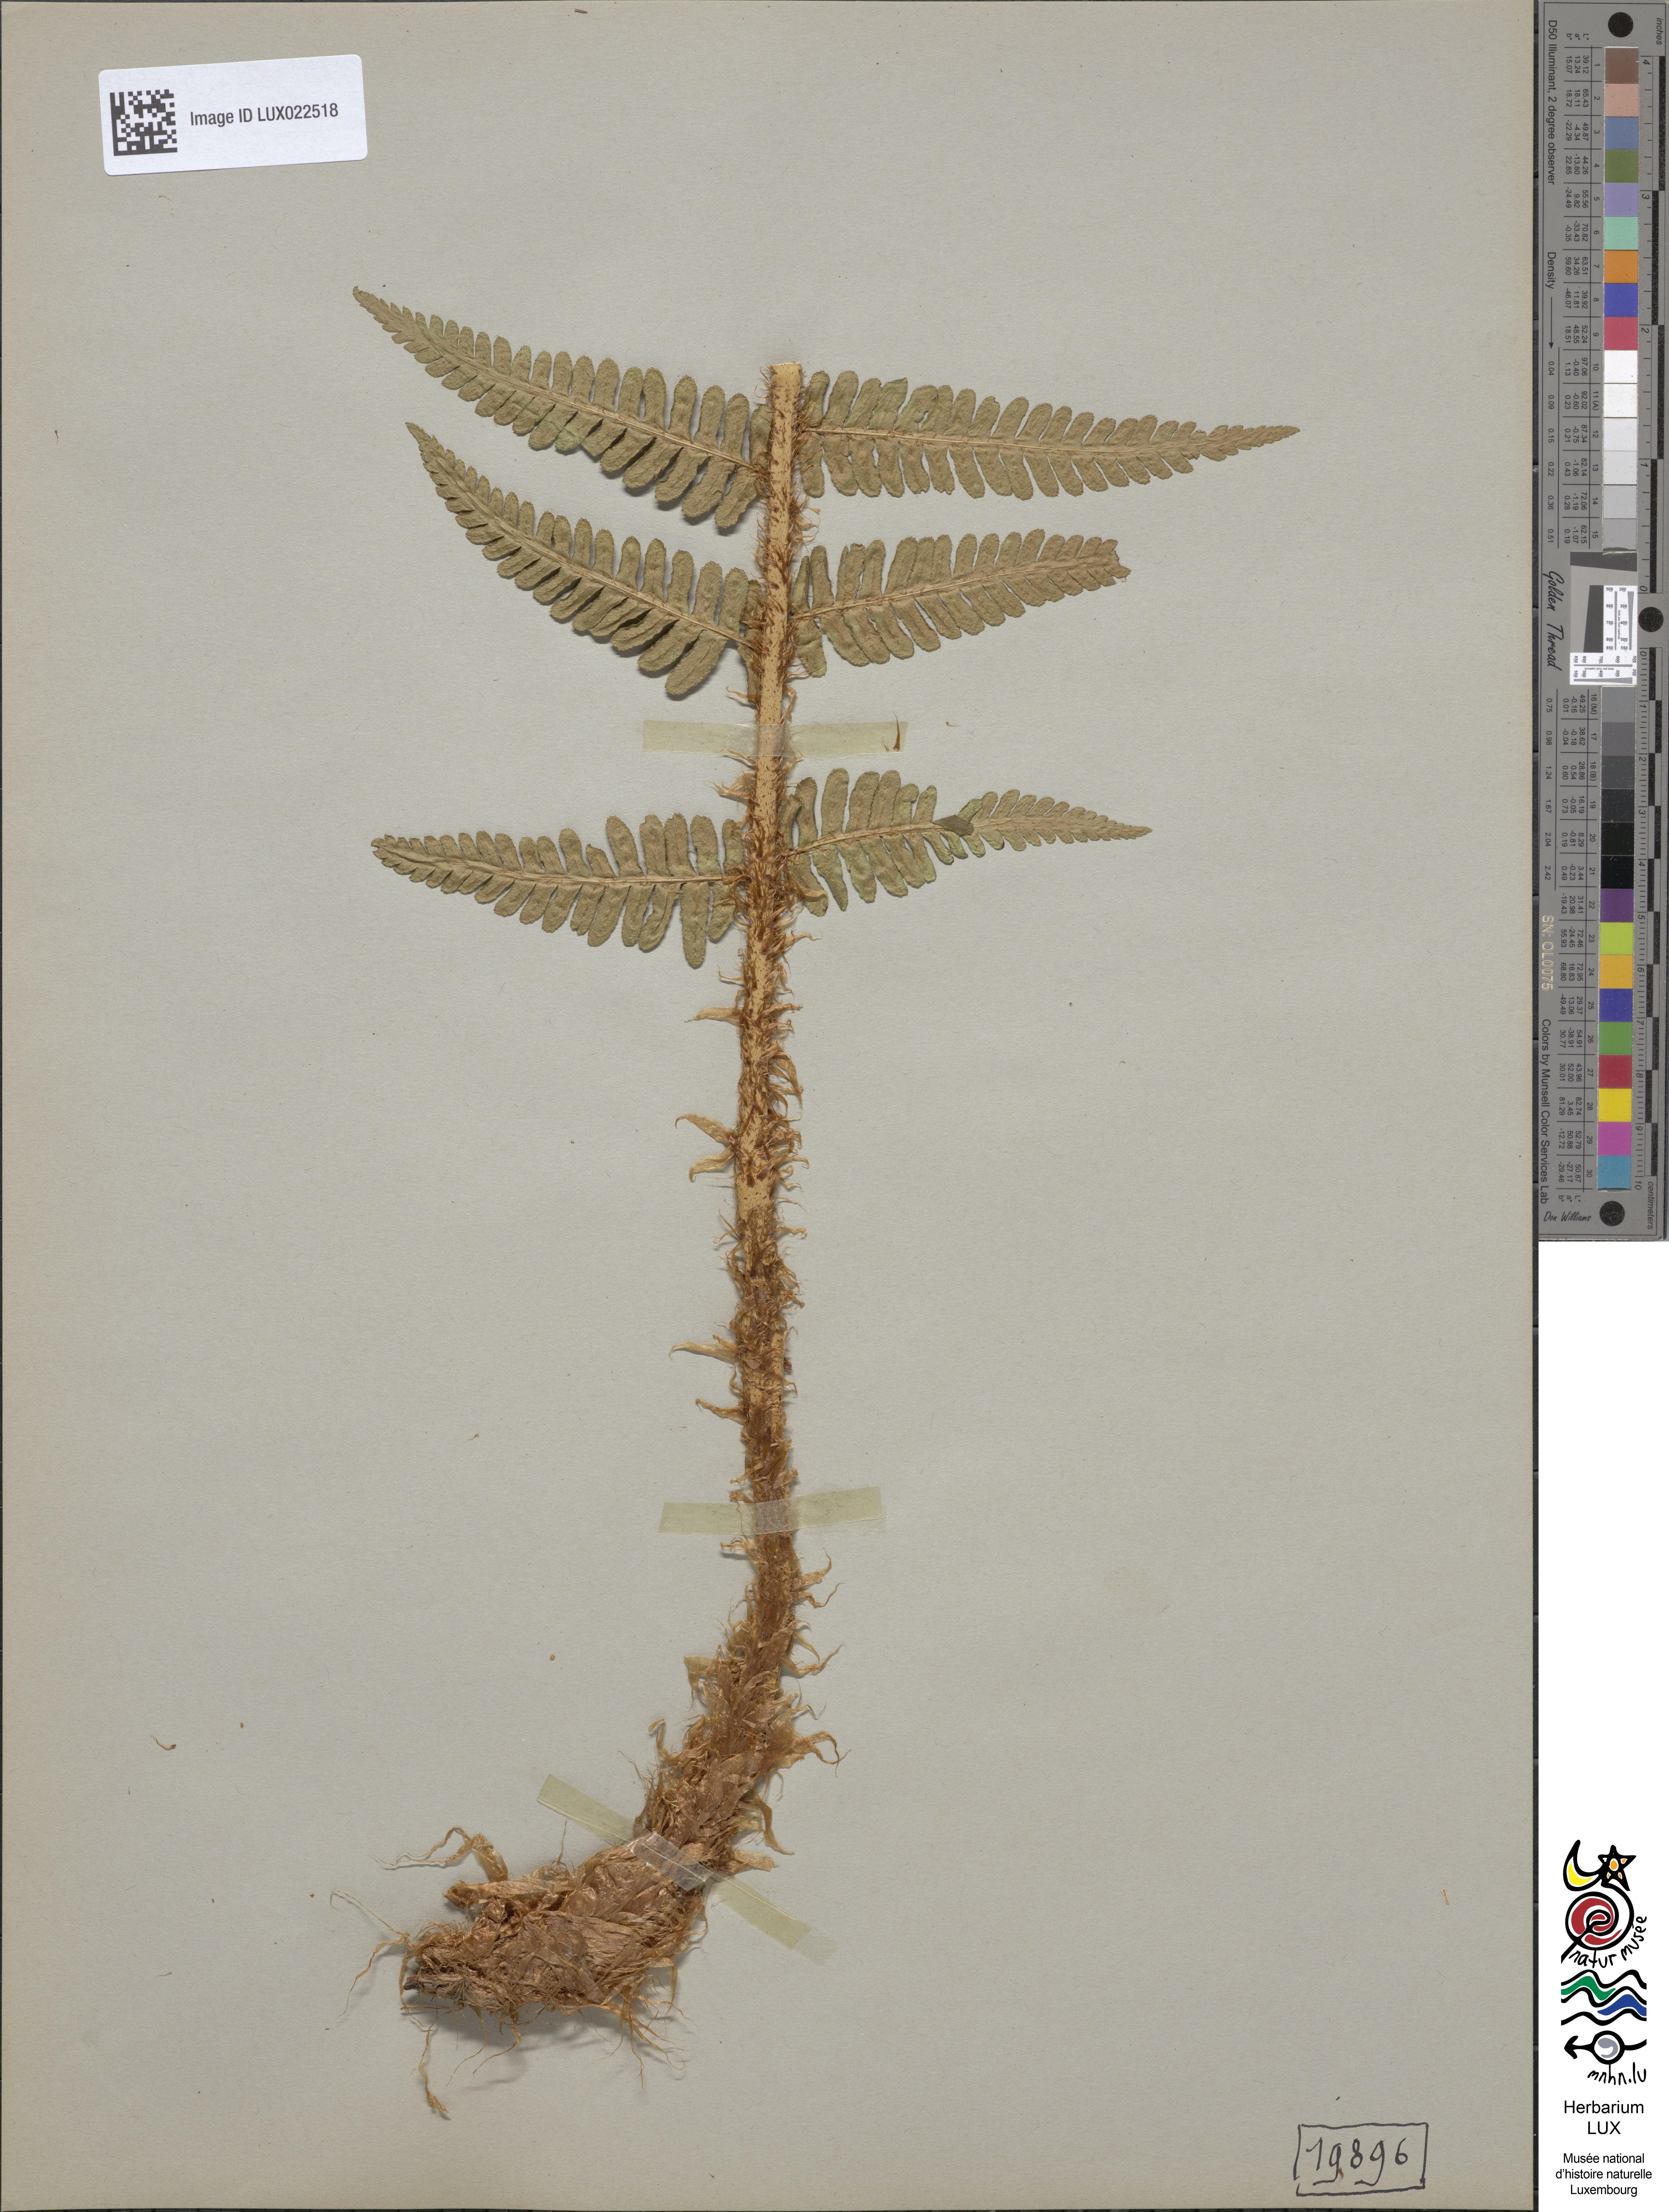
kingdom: Plantae
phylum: Tracheophyta
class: Polypodiopsida
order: Polypodiales
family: Dryopteridaceae
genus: Dryopteris
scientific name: Dryopteris borreri
